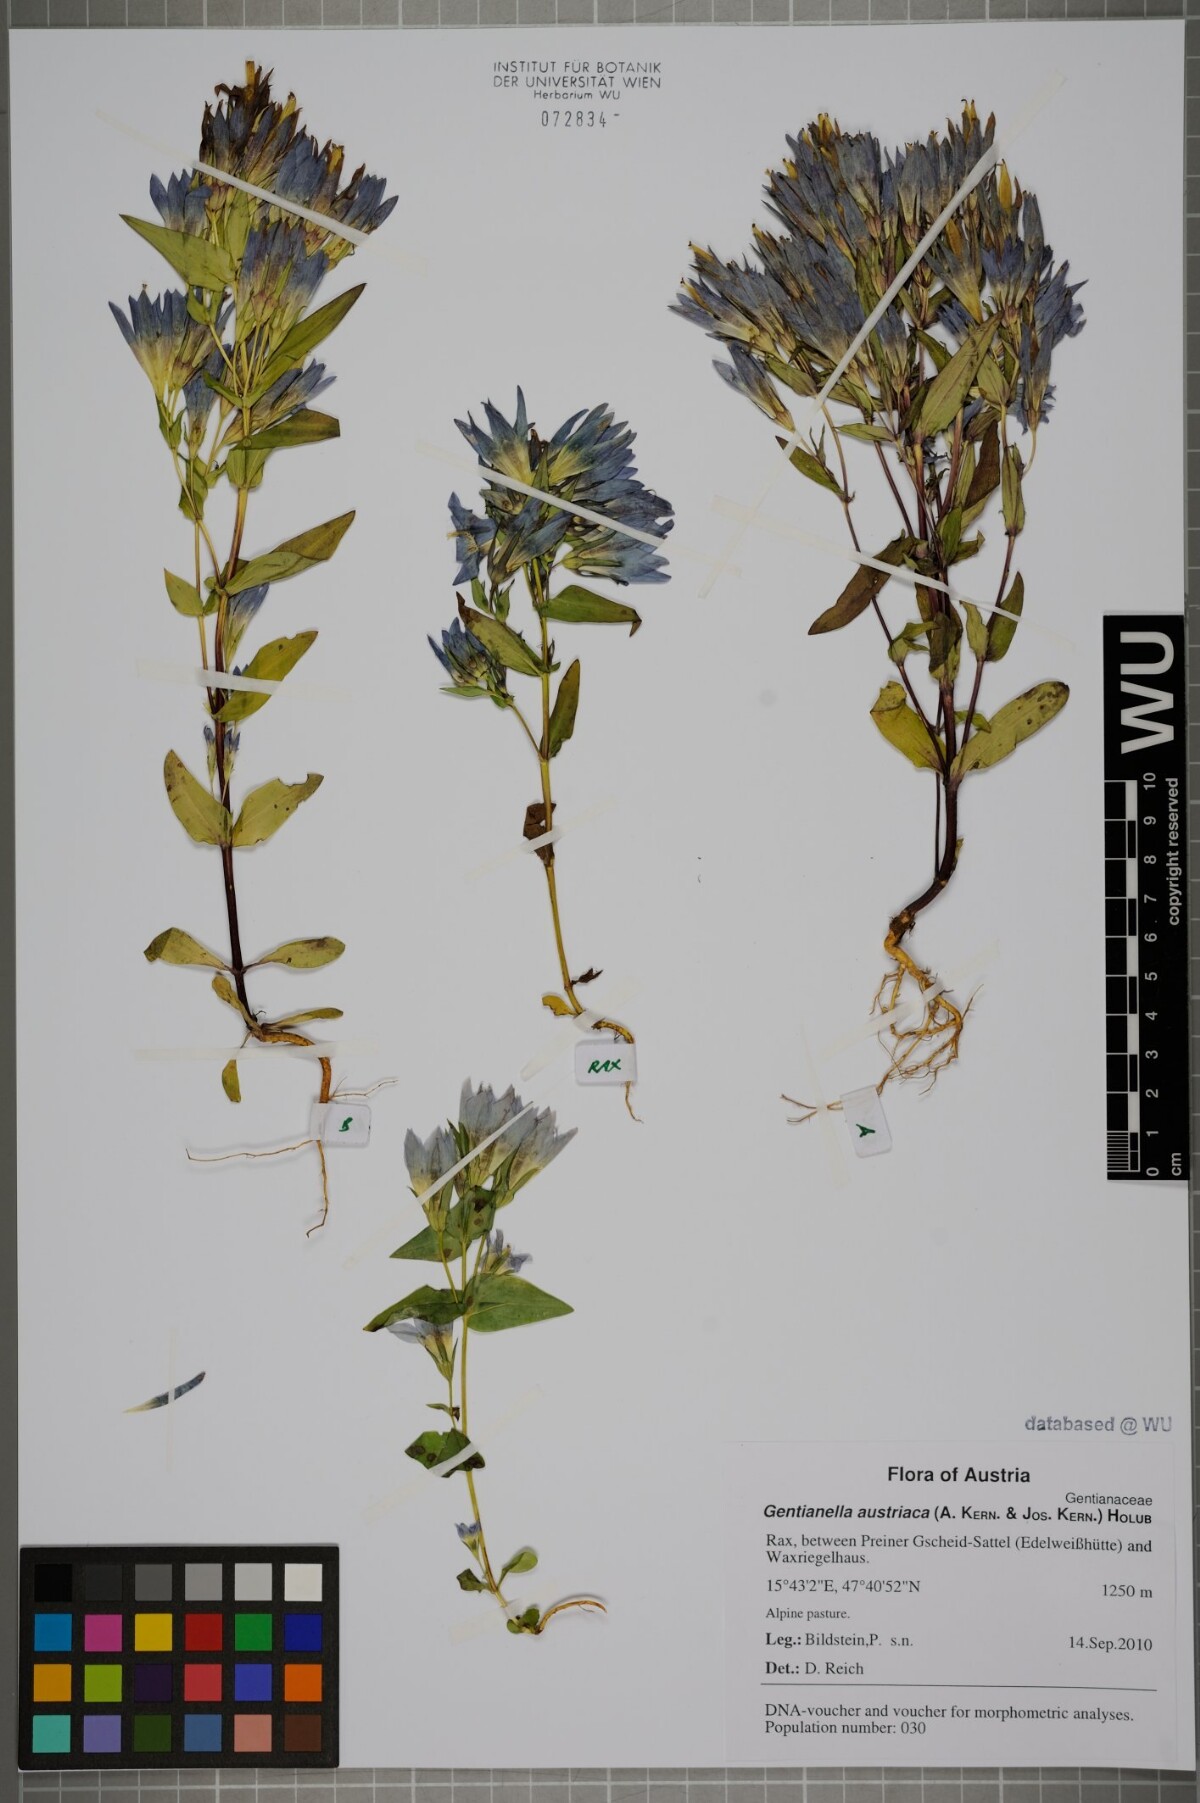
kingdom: Plantae
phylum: Tracheophyta
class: Magnoliopsida
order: Gentianales
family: Gentianaceae
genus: Gentianella
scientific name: Gentianella austriaca
